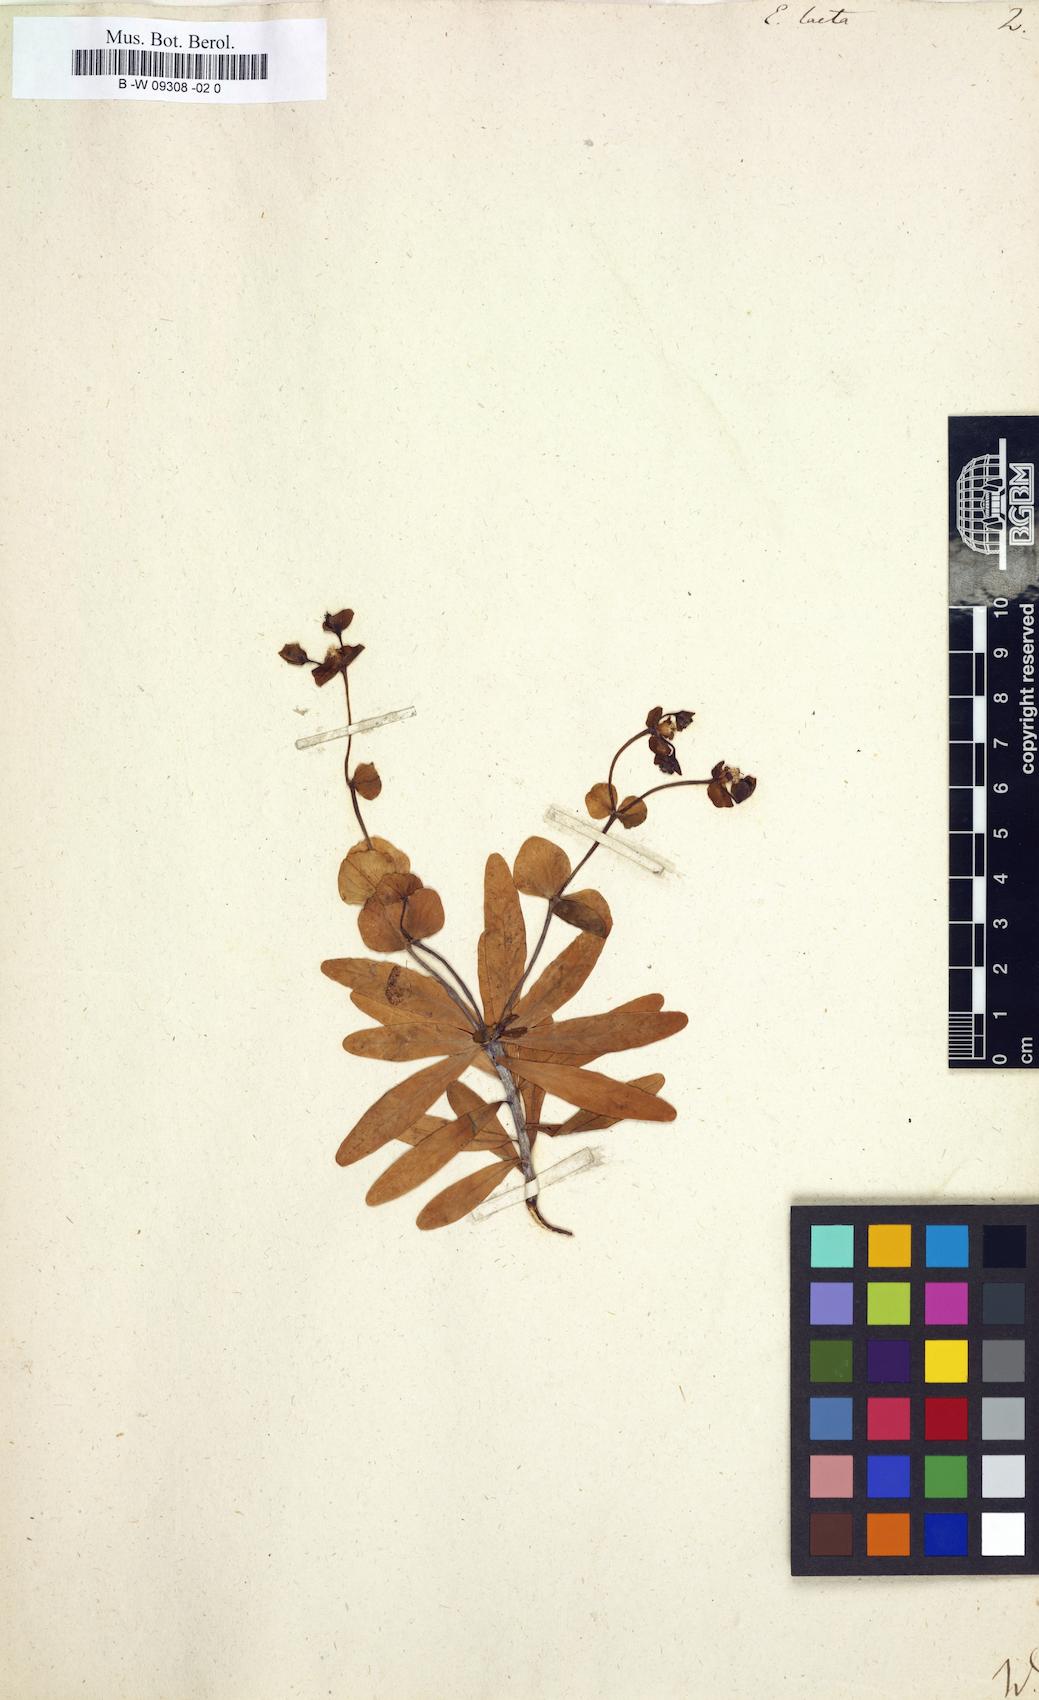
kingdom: Plantae
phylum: Tracheophyta
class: Magnoliopsida
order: Malpighiales
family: Euphorbiaceae
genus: Euphorbia
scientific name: Euphorbia dendroides
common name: Tree spurge
